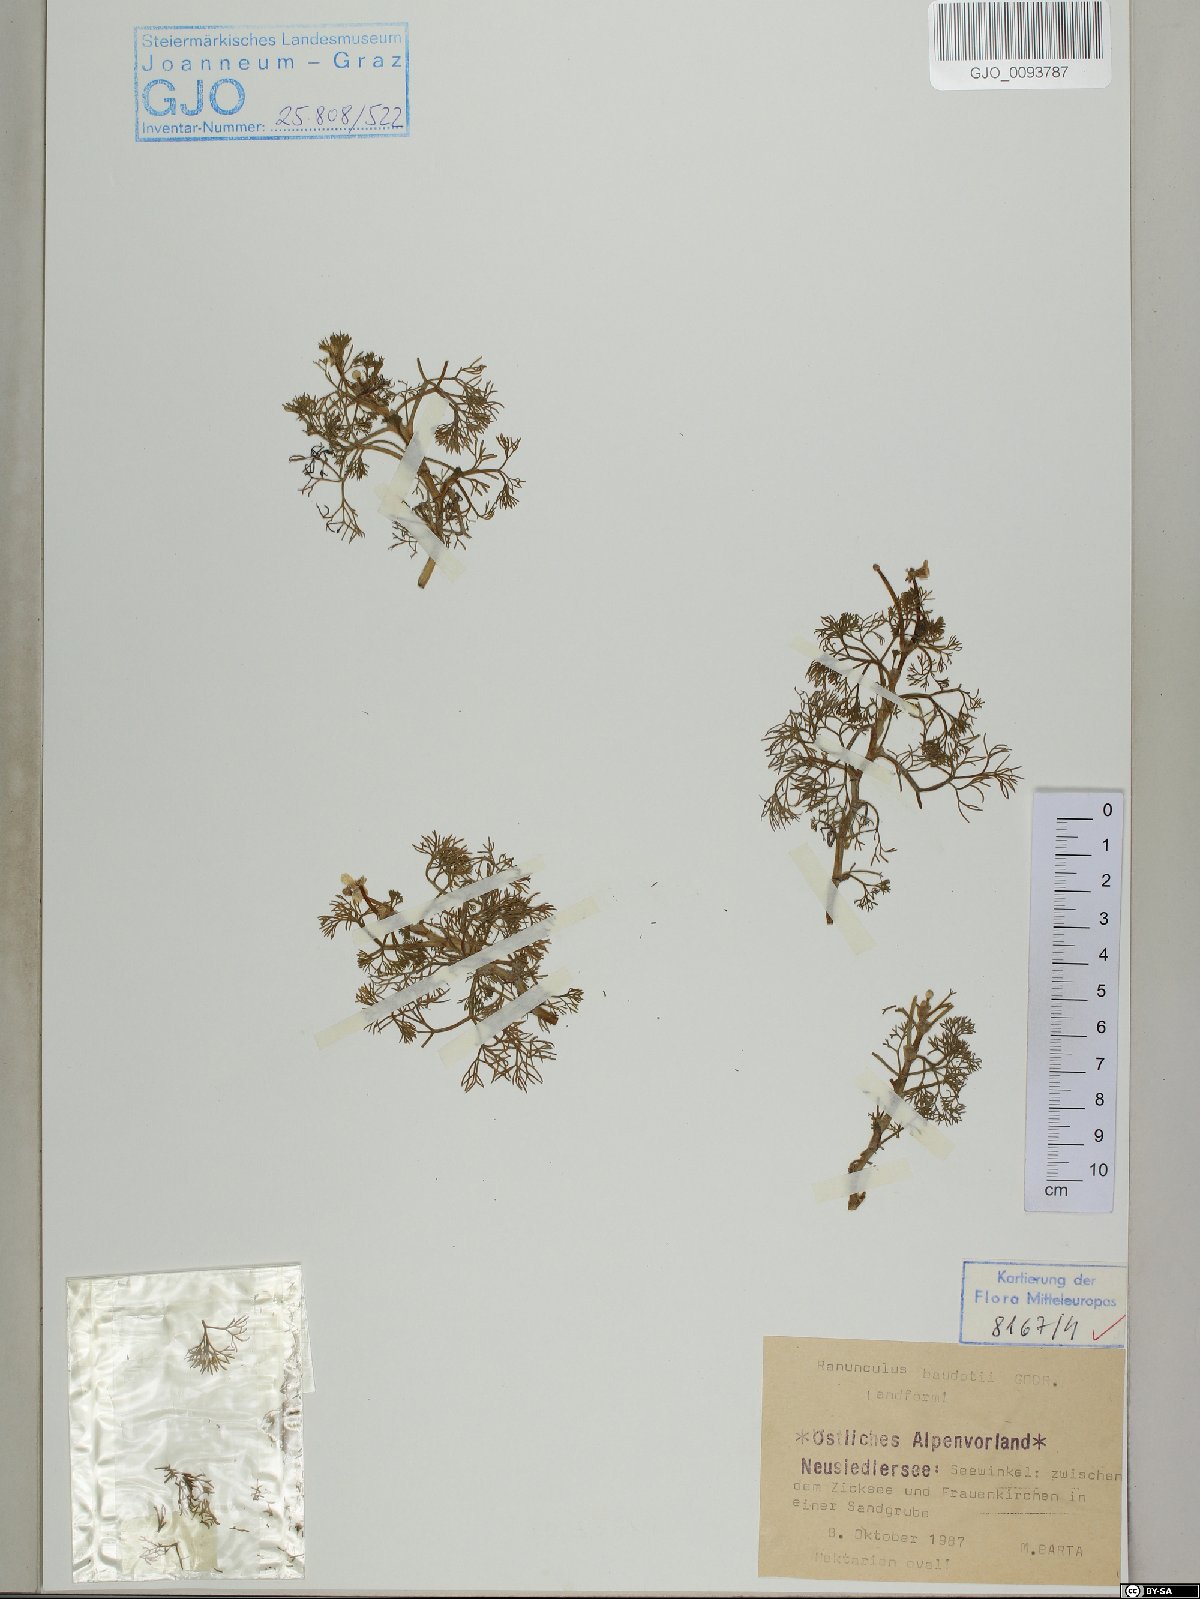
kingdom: Plantae
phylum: Tracheophyta
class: Magnoliopsida
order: Ranunculales
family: Ranunculaceae
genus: Ranunculus
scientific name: Ranunculus peltatus
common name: Pond water-crowfoot
